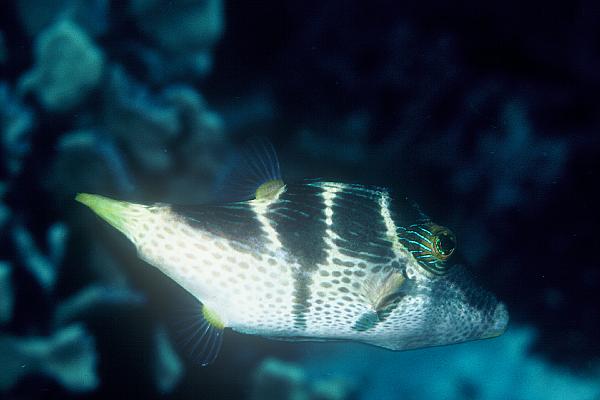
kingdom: Animalia
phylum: Chordata
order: Tetraodontiformes
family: Tetraodontidae
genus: Canthigaster
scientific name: Canthigaster valentini
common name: Banded toby
